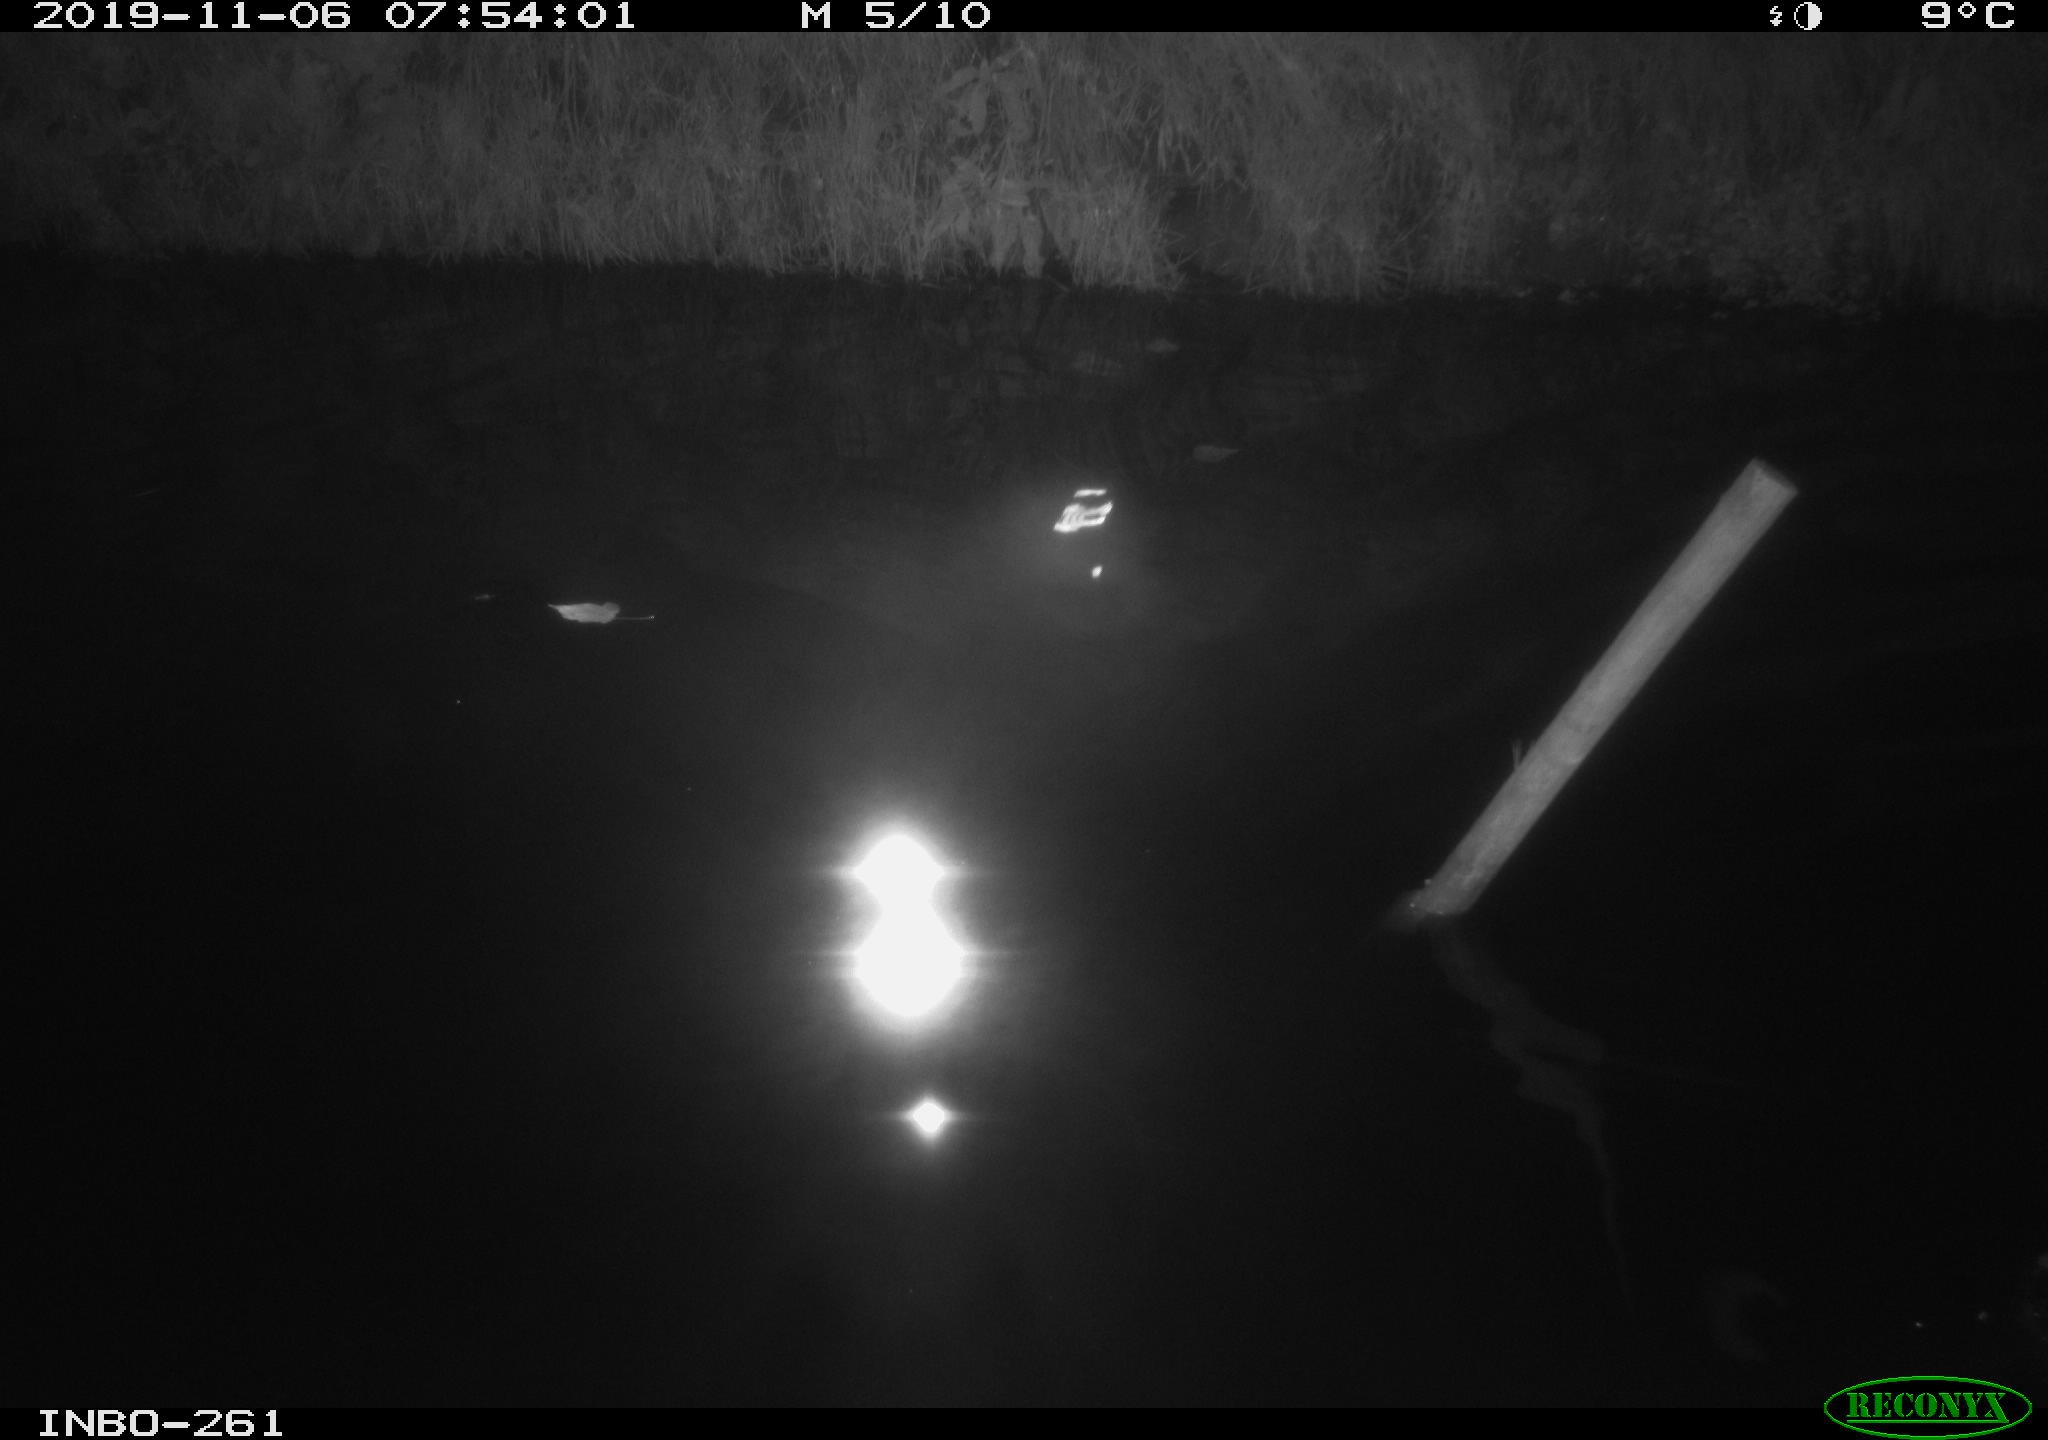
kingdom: Animalia
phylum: Chordata
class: Aves
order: Anseriformes
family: Anatidae
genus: Anas
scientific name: Anas platyrhynchos
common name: Mallard
